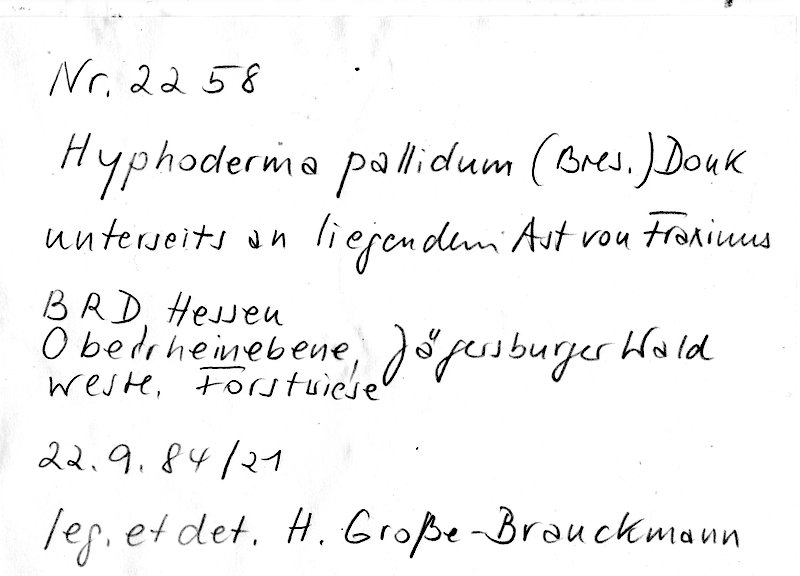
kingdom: Fungi
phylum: Basidiomycota
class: Agaricomycetes
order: Hymenochaetales
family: Rickenellaceae
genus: Peniophorella
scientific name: Peniophorella pallida
